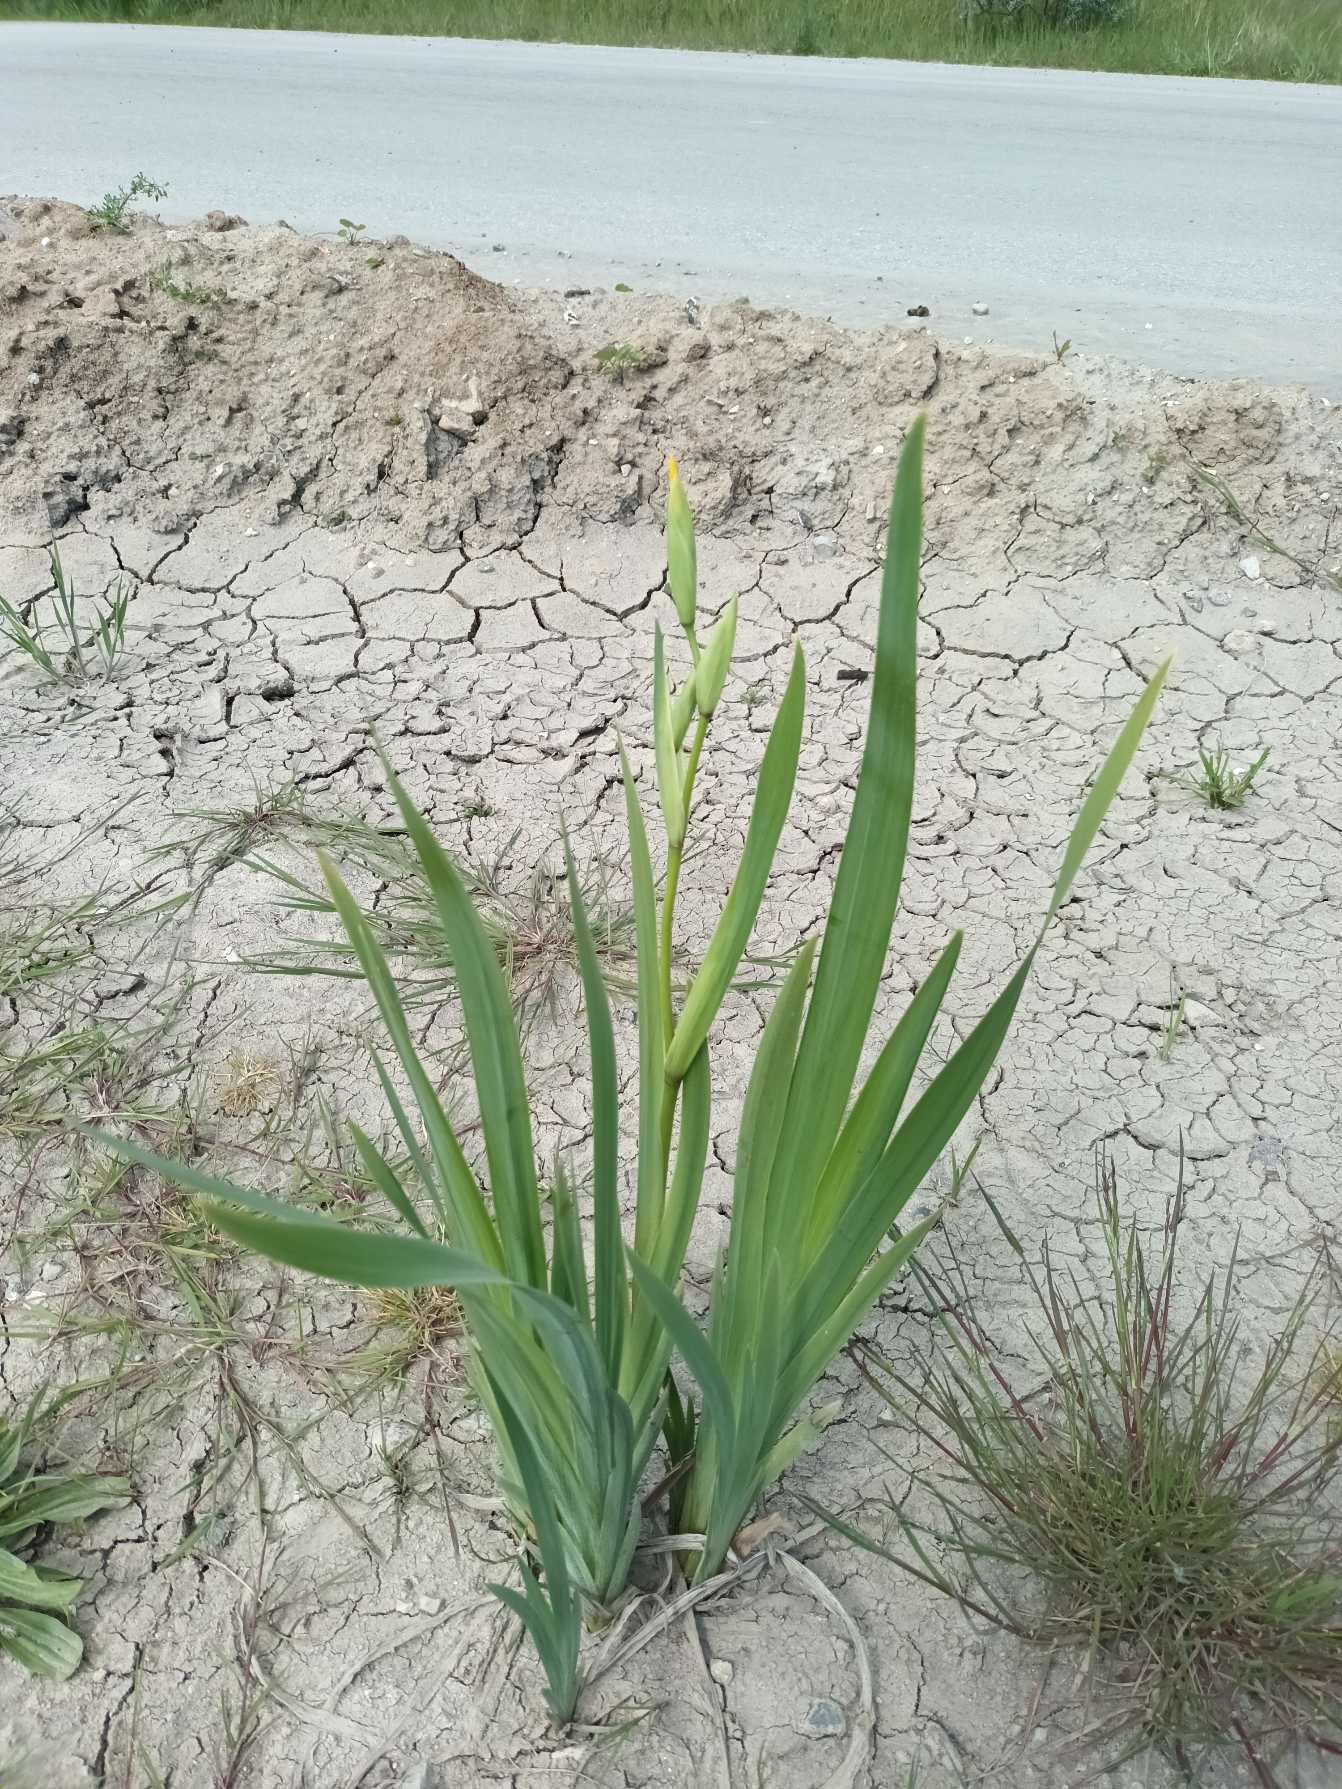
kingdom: Plantae
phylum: Tracheophyta
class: Liliopsida
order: Asparagales
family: Iridaceae
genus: Iris
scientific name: Iris pseudacorus
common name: Gul iris
